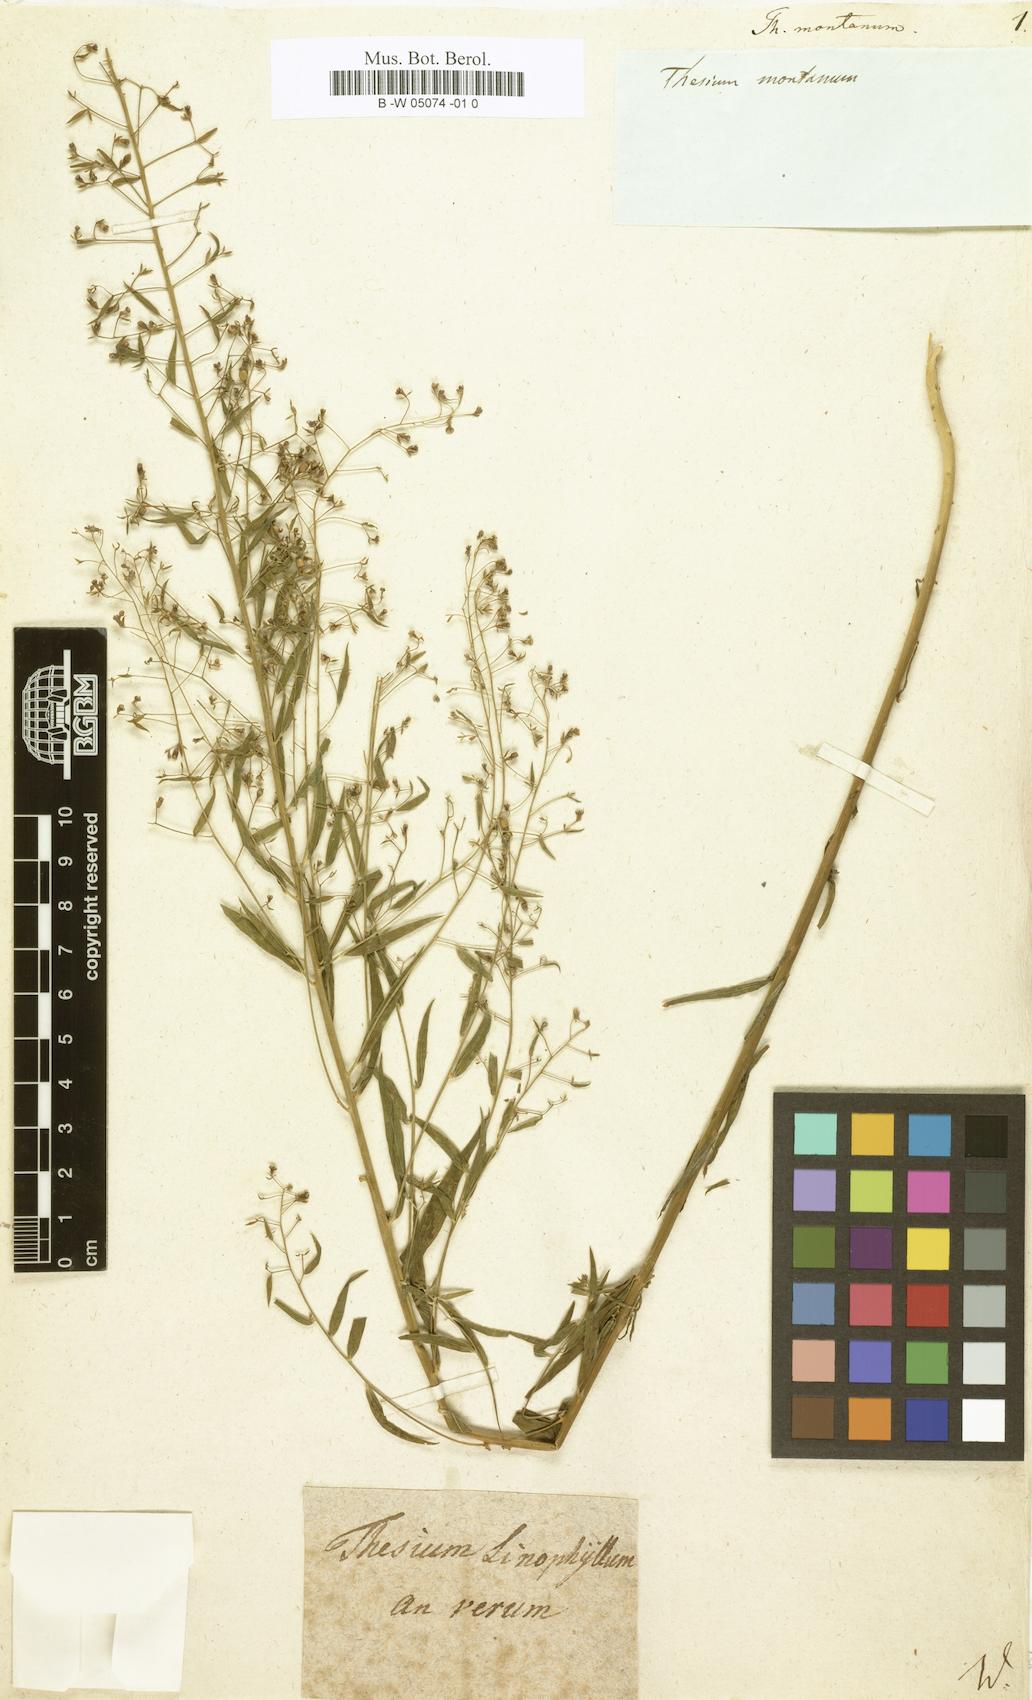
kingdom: Plantae
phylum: Tracheophyta
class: Magnoliopsida
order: Santalales
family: Thesiaceae
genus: Thesium
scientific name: Thesium bavarum
